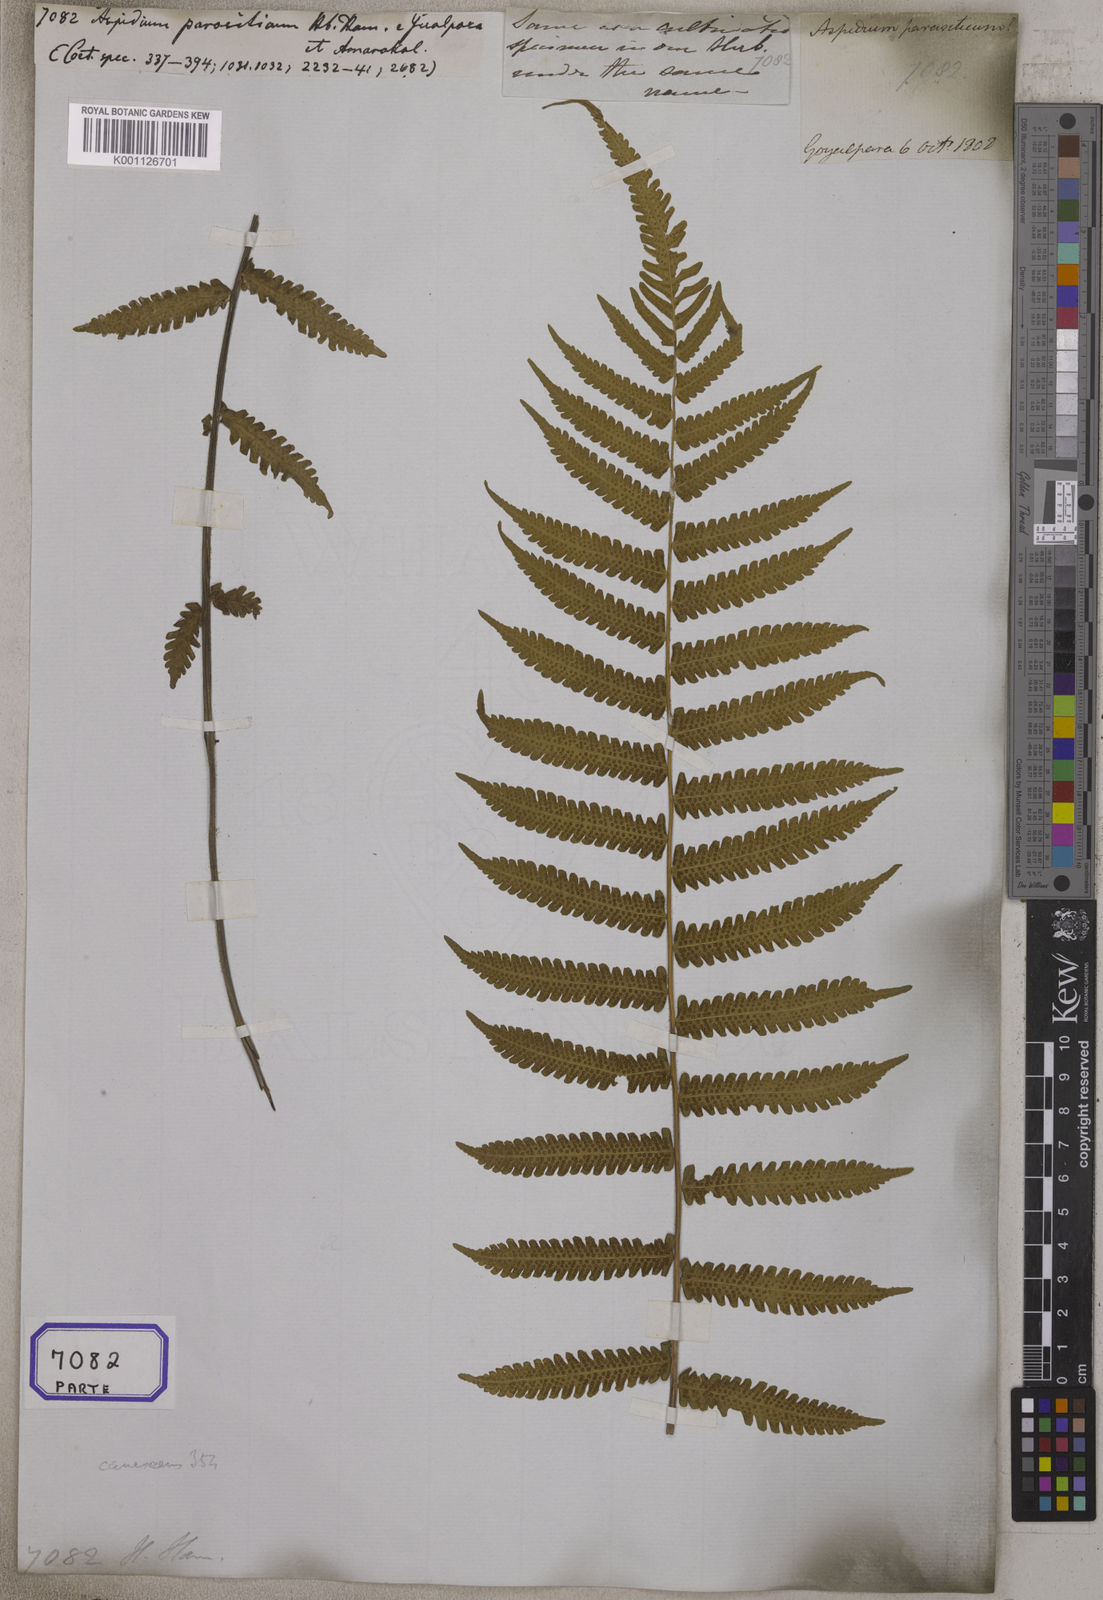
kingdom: Plantae
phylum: Tracheophyta
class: Polypodiopsida
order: Polypodiales
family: Thelypteridaceae
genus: Christella
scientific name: Christella parasitica
